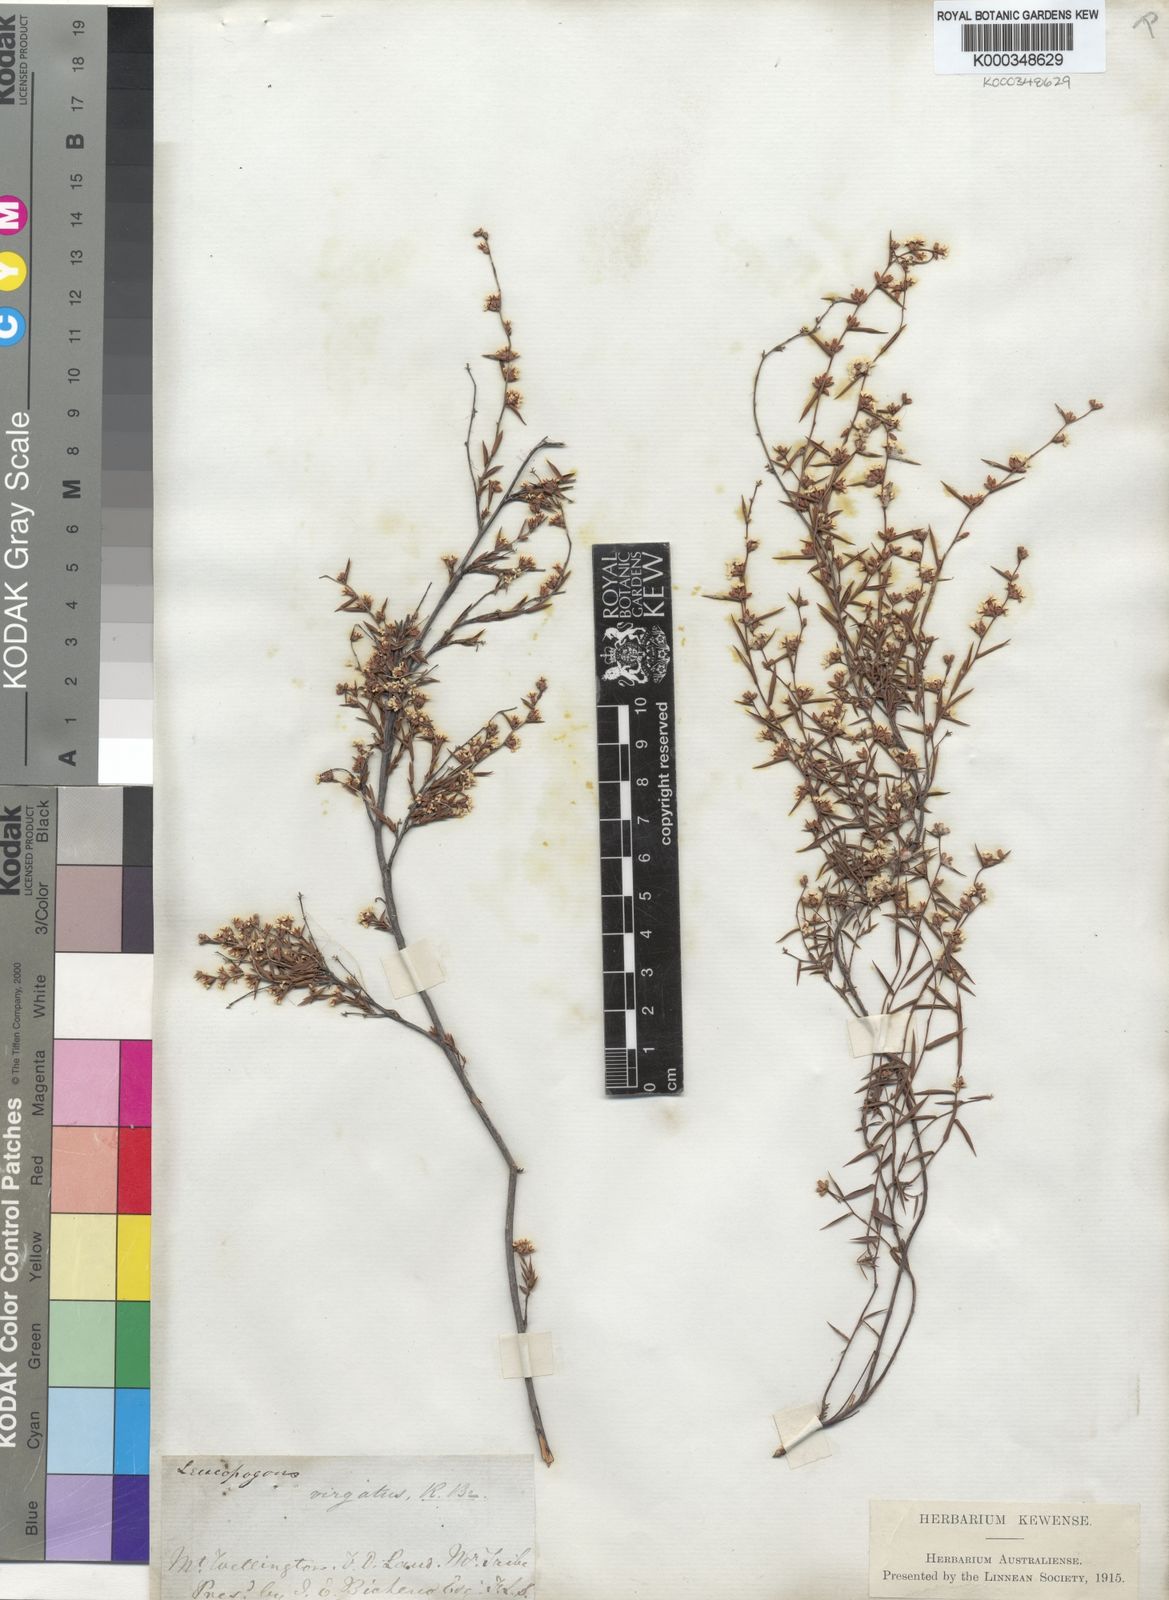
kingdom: Plantae
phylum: Tracheophyta
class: Magnoliopsida
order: Ericales
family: Ericaceae
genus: Leucopogon
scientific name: Leucopogon virgatus
